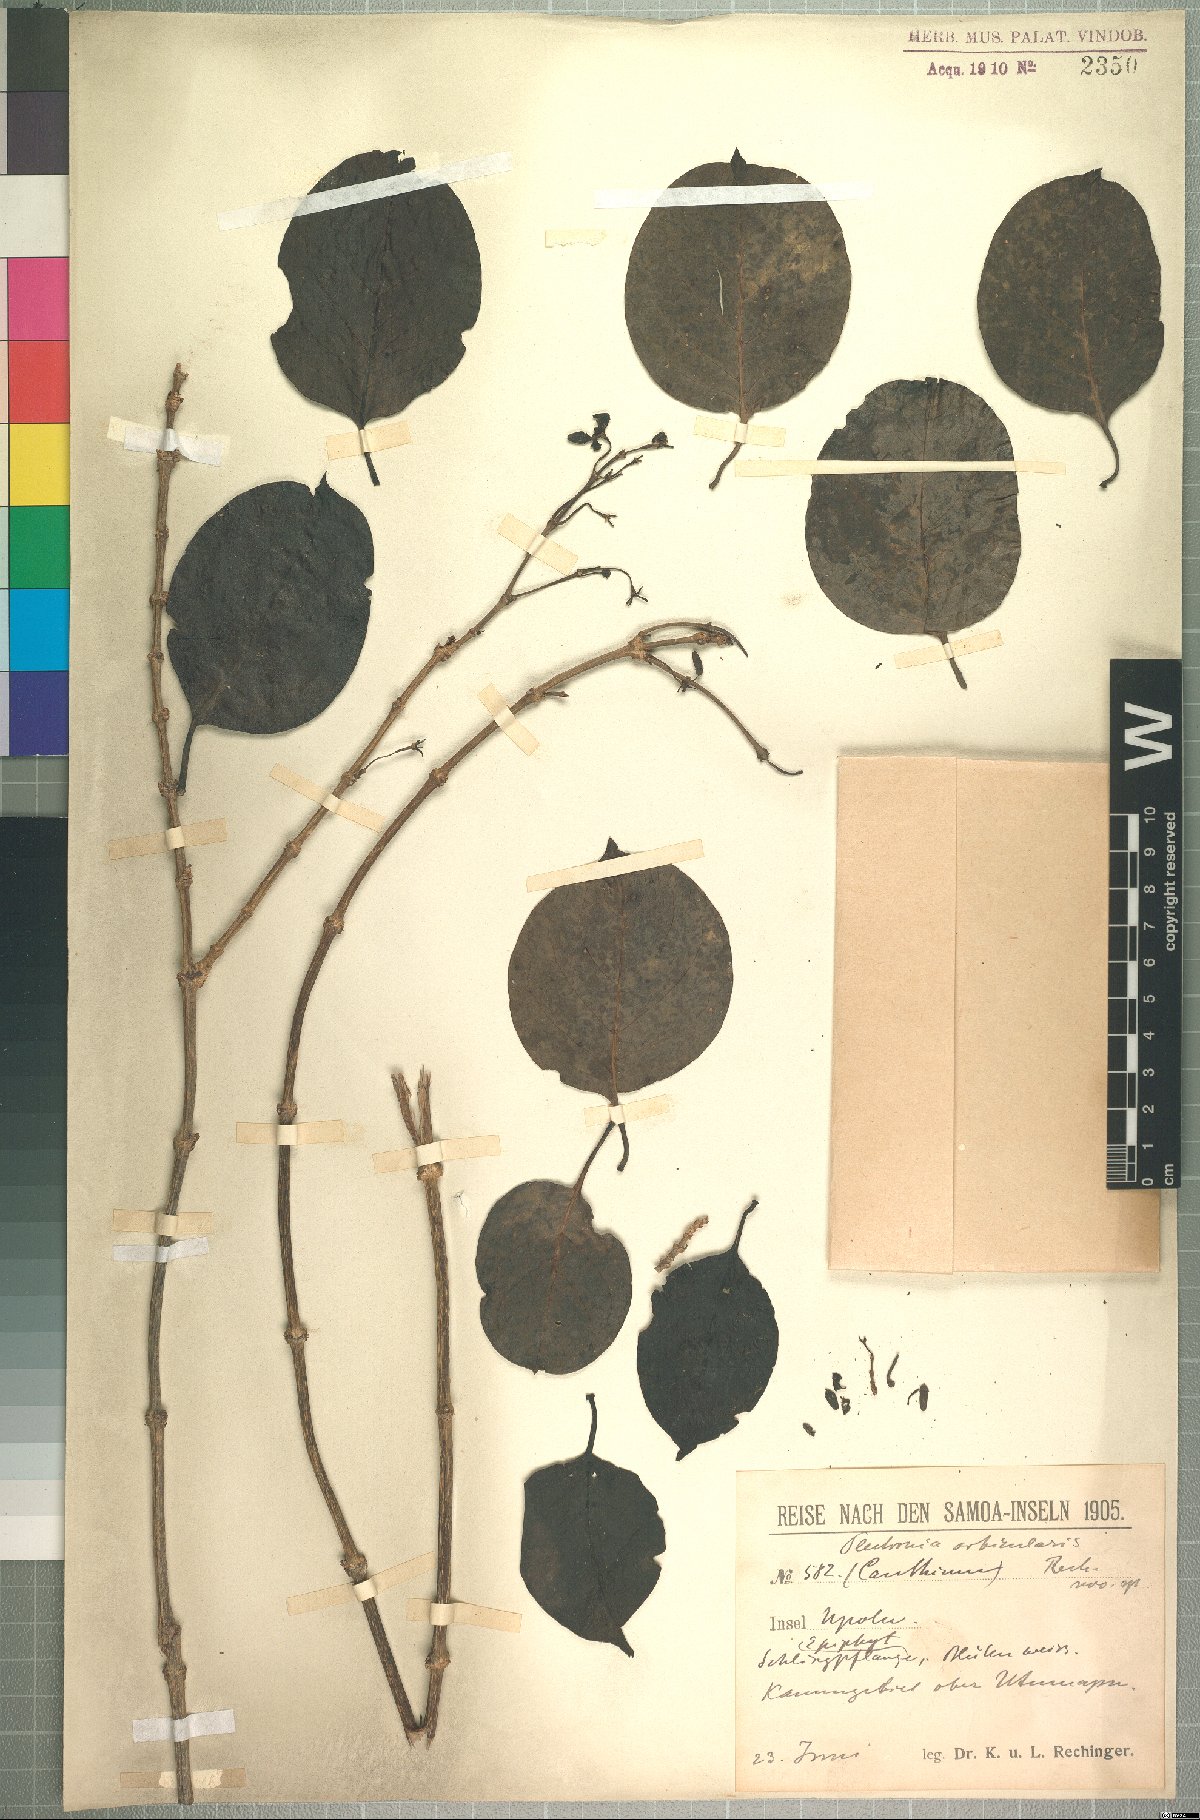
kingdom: Plantae
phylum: Tracheophyta
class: Magnoliopsida
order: Gentianales
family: Rubiaceae
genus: Gynochthodes
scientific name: Gynochthodes epiphytica
